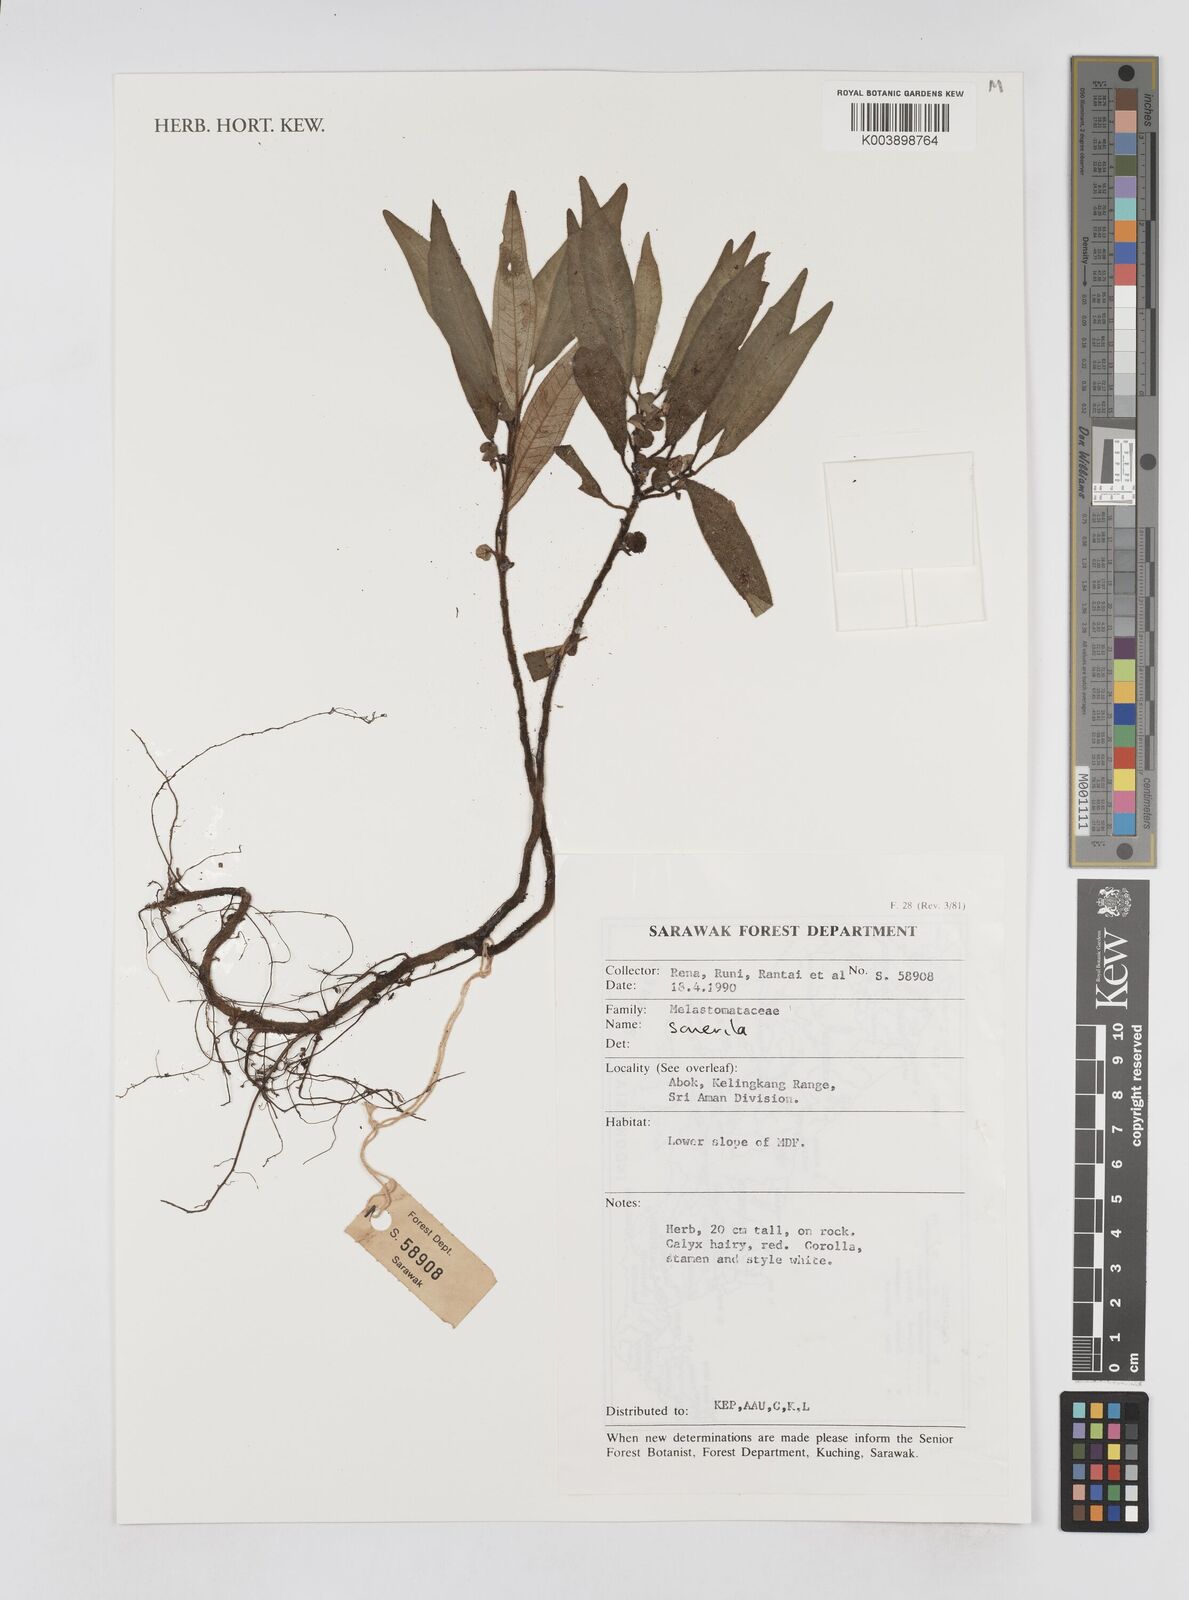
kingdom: Plantae
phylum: Tracheophyta
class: Magnoliopsida
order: Myrtales
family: Melastomataceae
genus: Sonerila
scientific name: Sonerila
